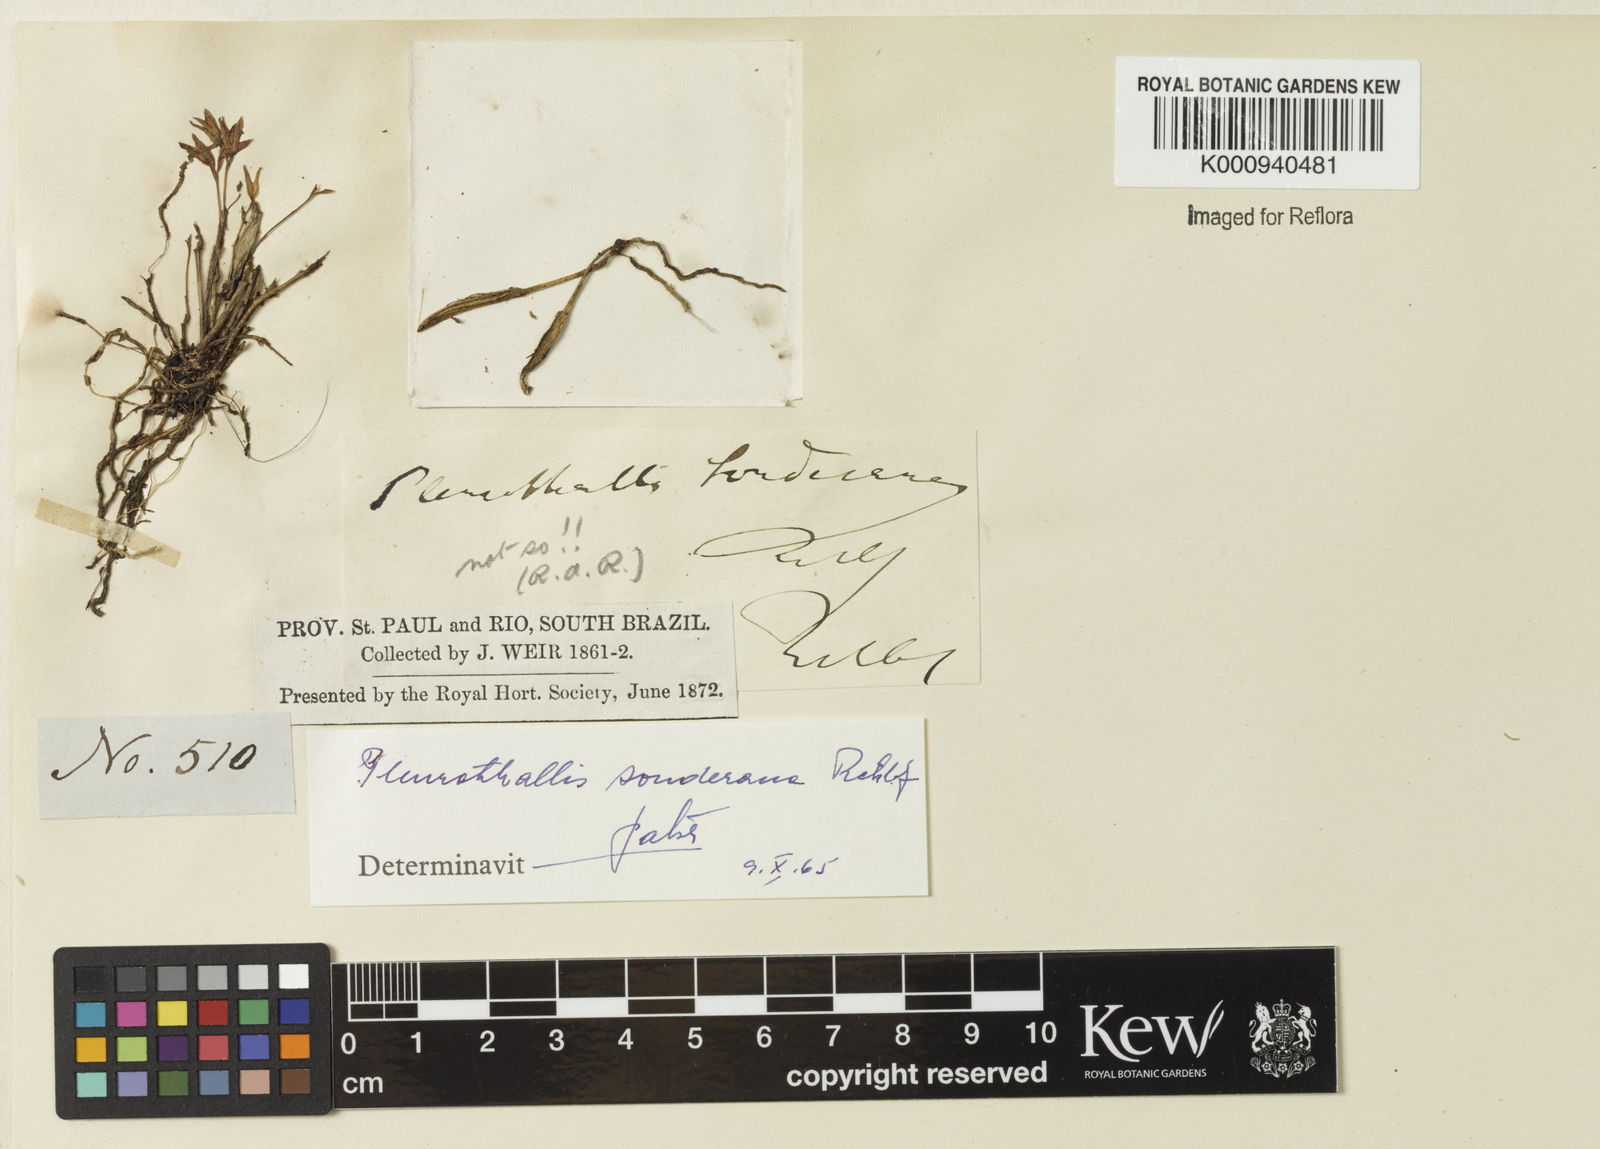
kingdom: Plantae
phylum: Tracheophyta
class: Liliopsida
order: Asparagales
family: Orchidaceae
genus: Acianthera
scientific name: Acianthera sonderiana
